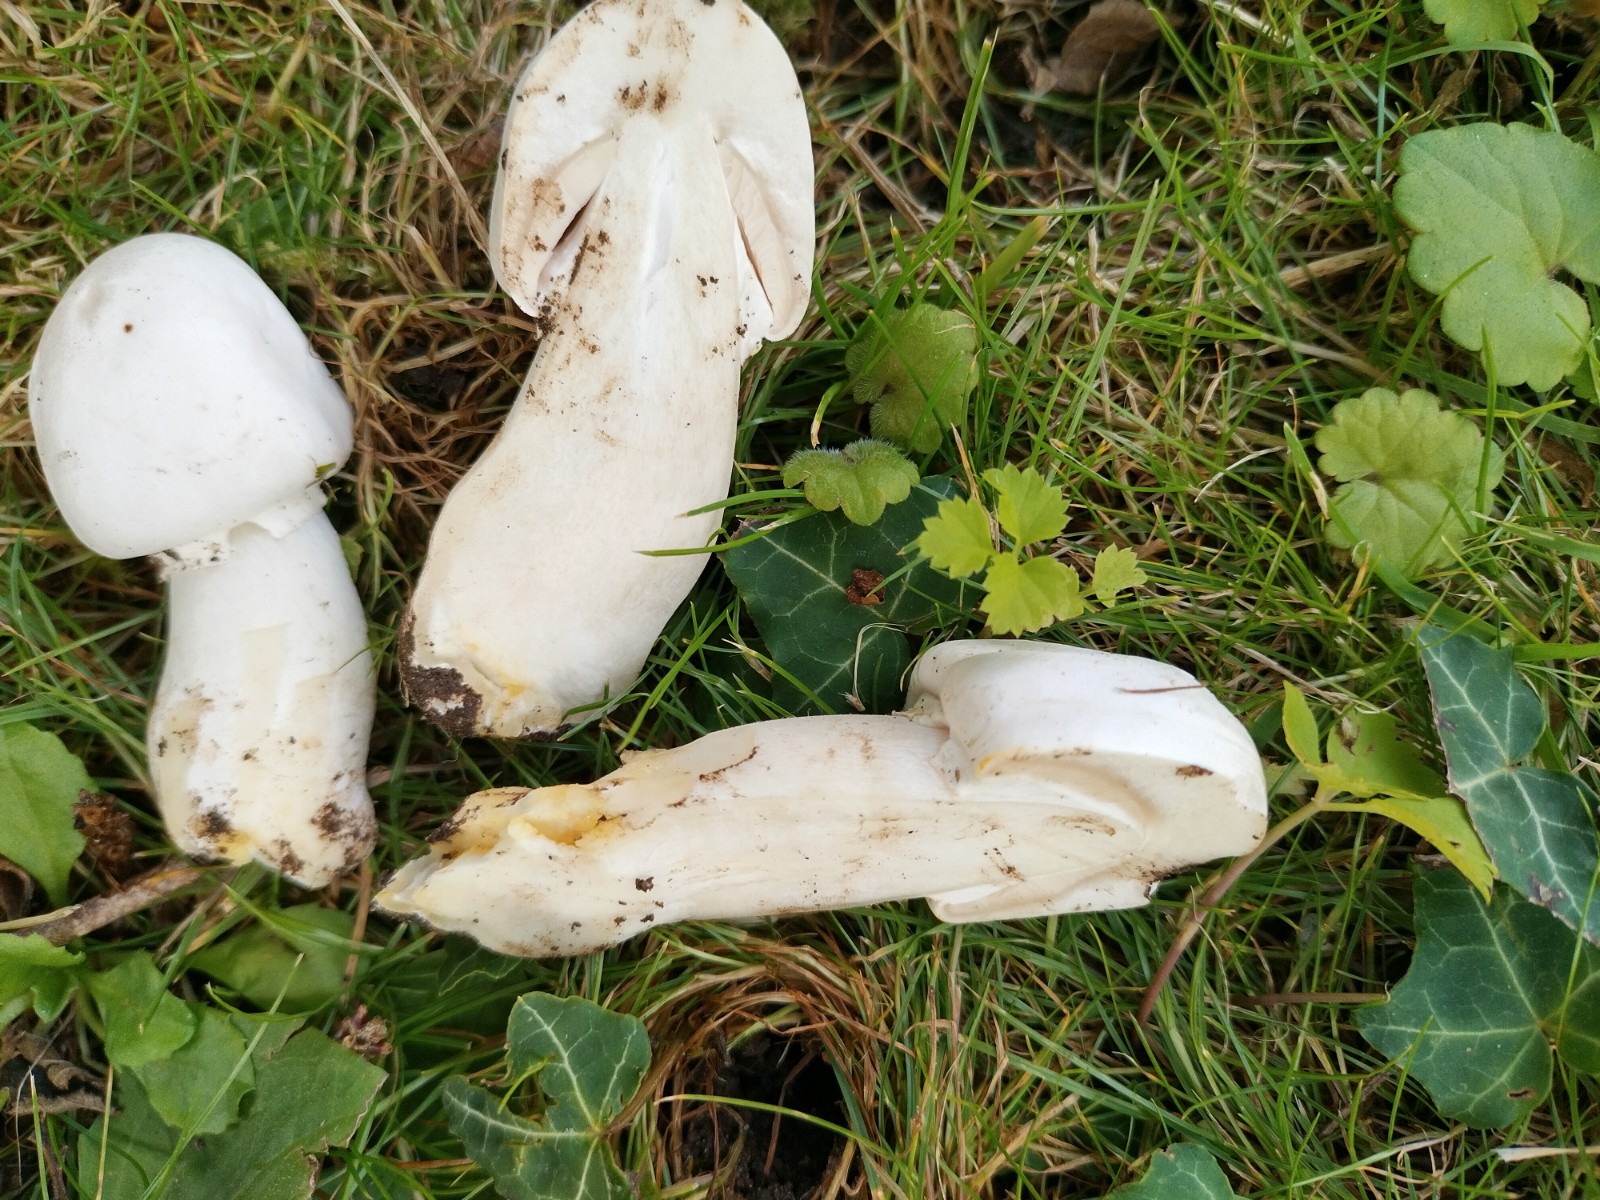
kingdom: Fungi
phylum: Basidiomycota
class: Agaricomycetes
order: Agaricales
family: Agaricaceae
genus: Agaricus
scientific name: Agaricus xanthodermus
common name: karbol-champignon
